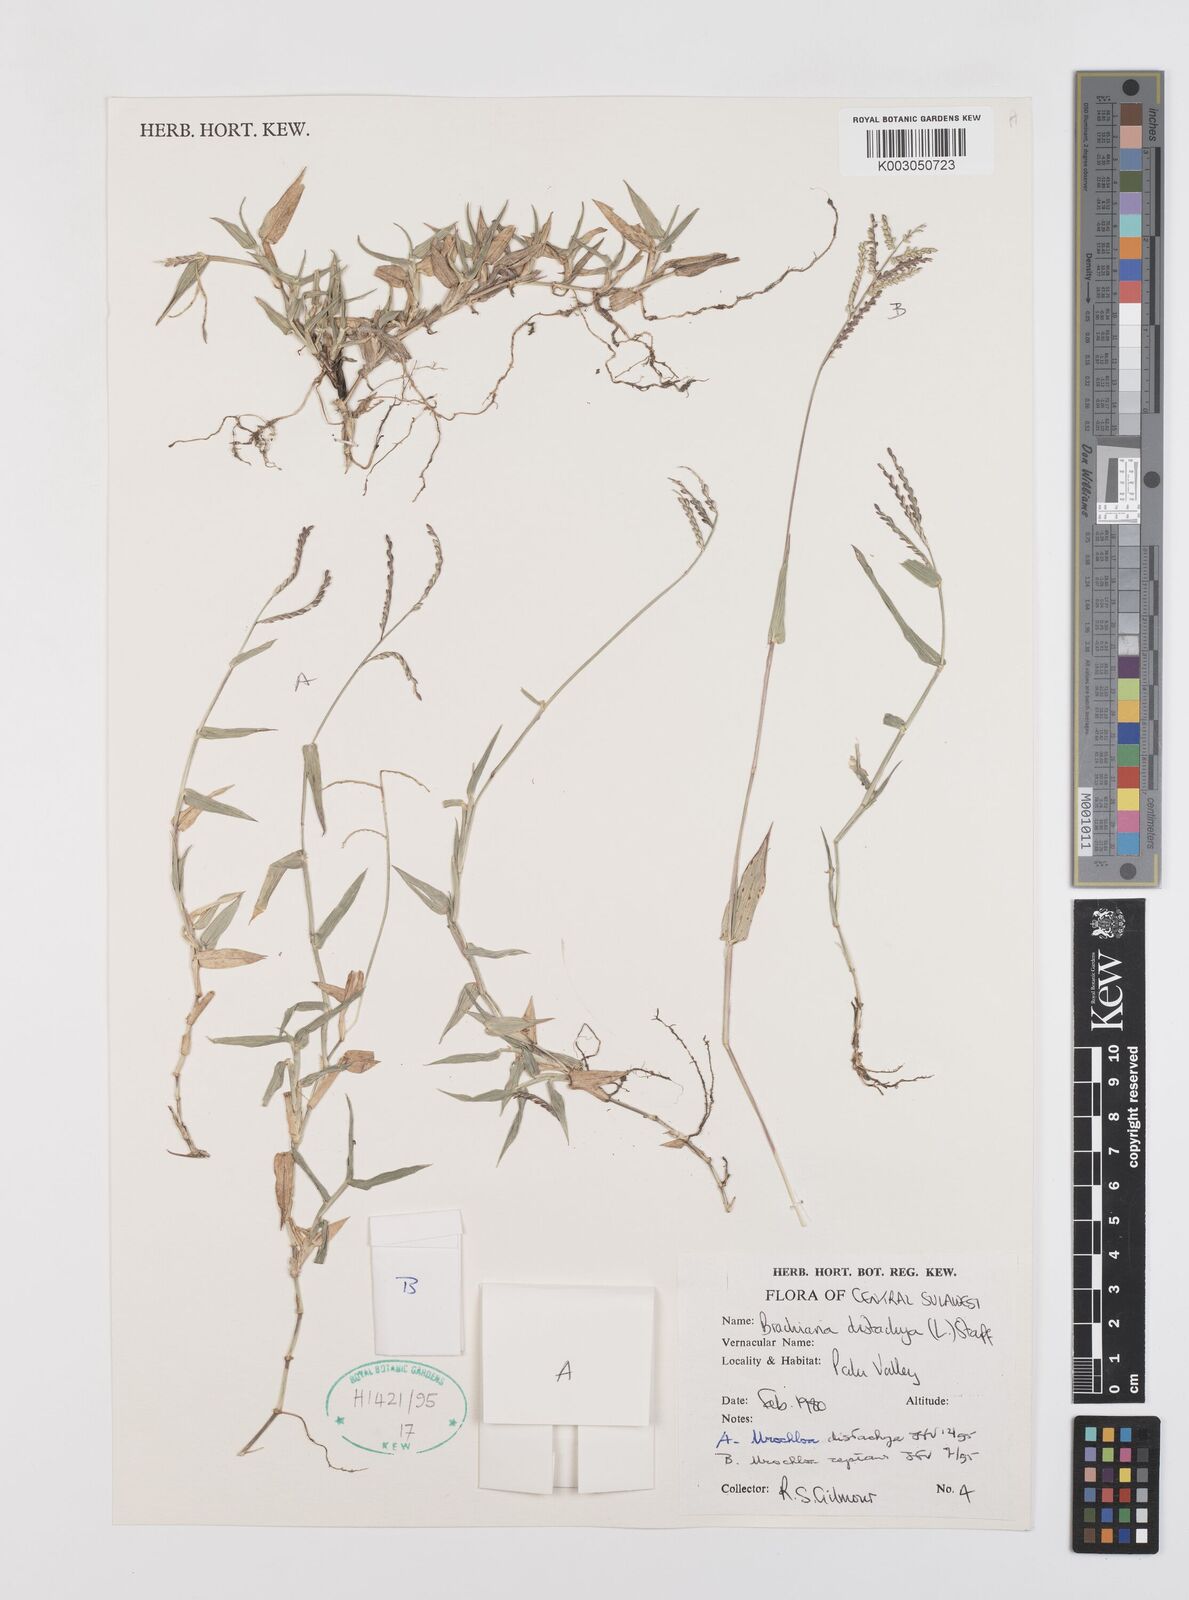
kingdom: Plantae
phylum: Tracheophyta
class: Liliopsida
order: Poales
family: Poaceae
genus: Urochloa
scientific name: Urochloa distachyos
